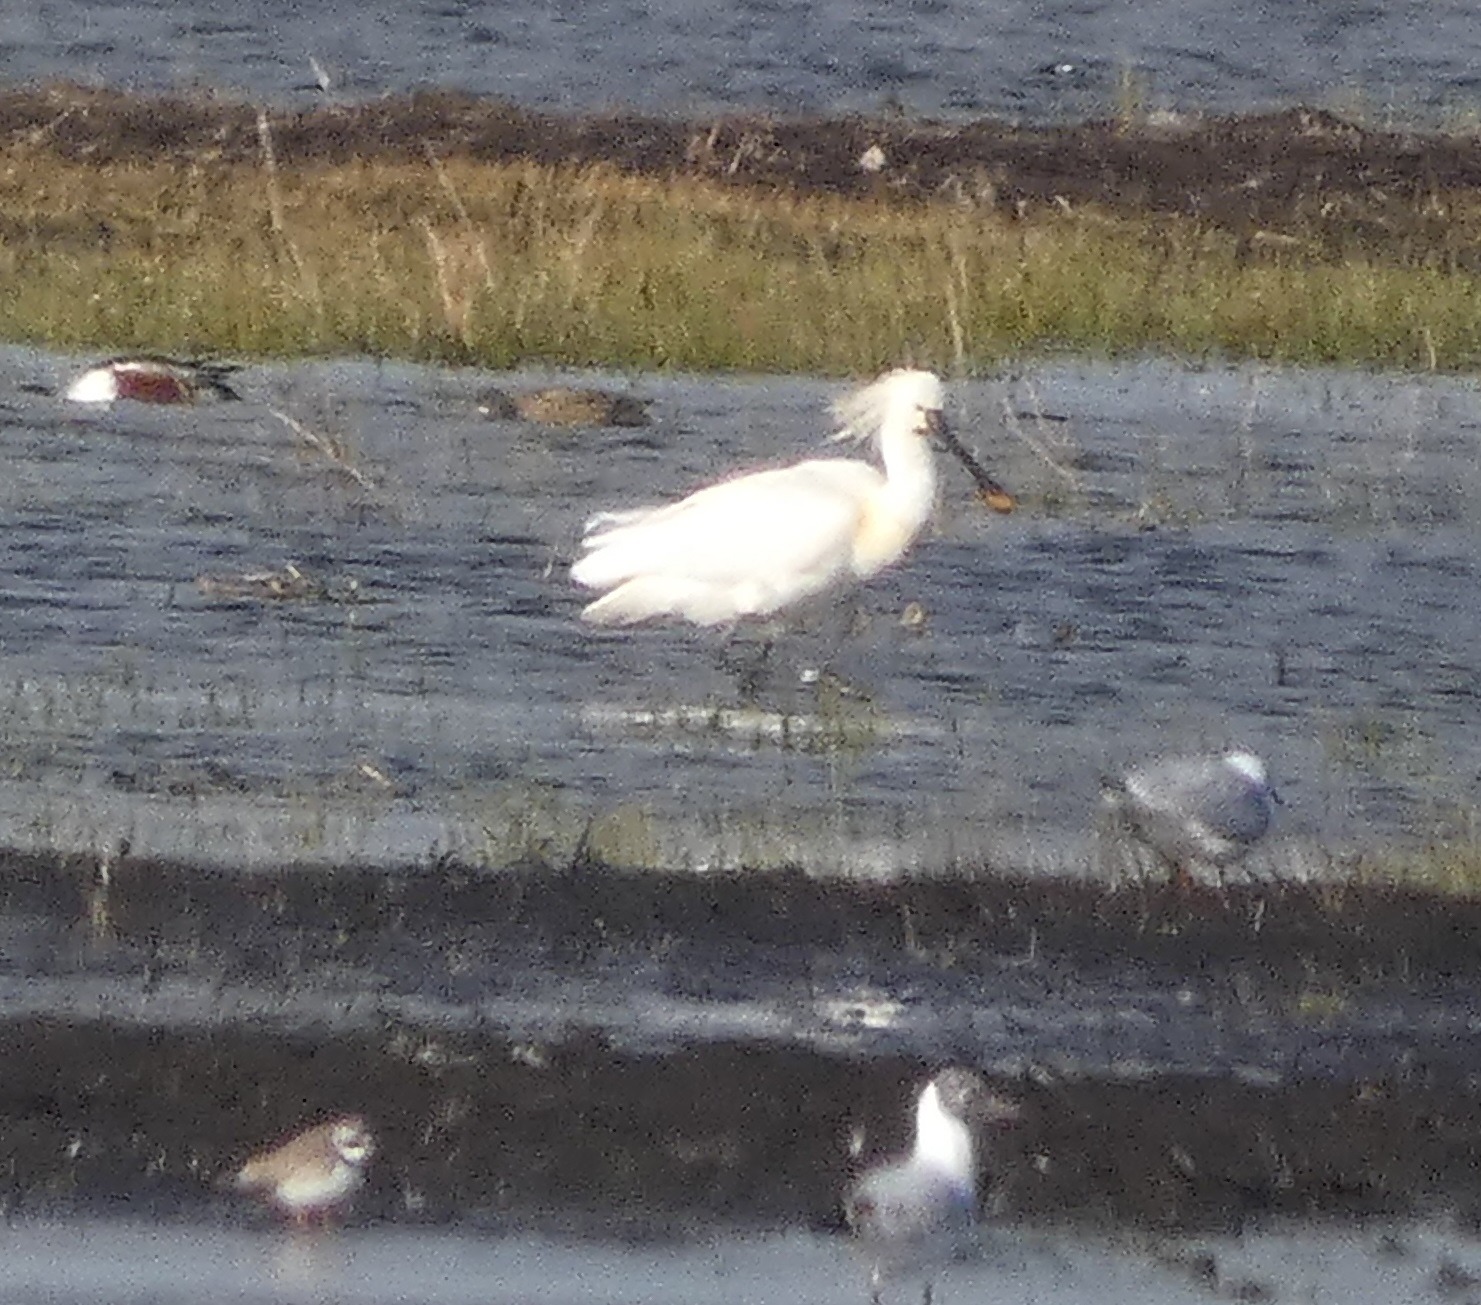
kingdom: Animalia
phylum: Chordata
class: Aves
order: Pelecaniformes
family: Threskiornithidae
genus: Platalea
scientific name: Platalea leucorodia
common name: Skestork
